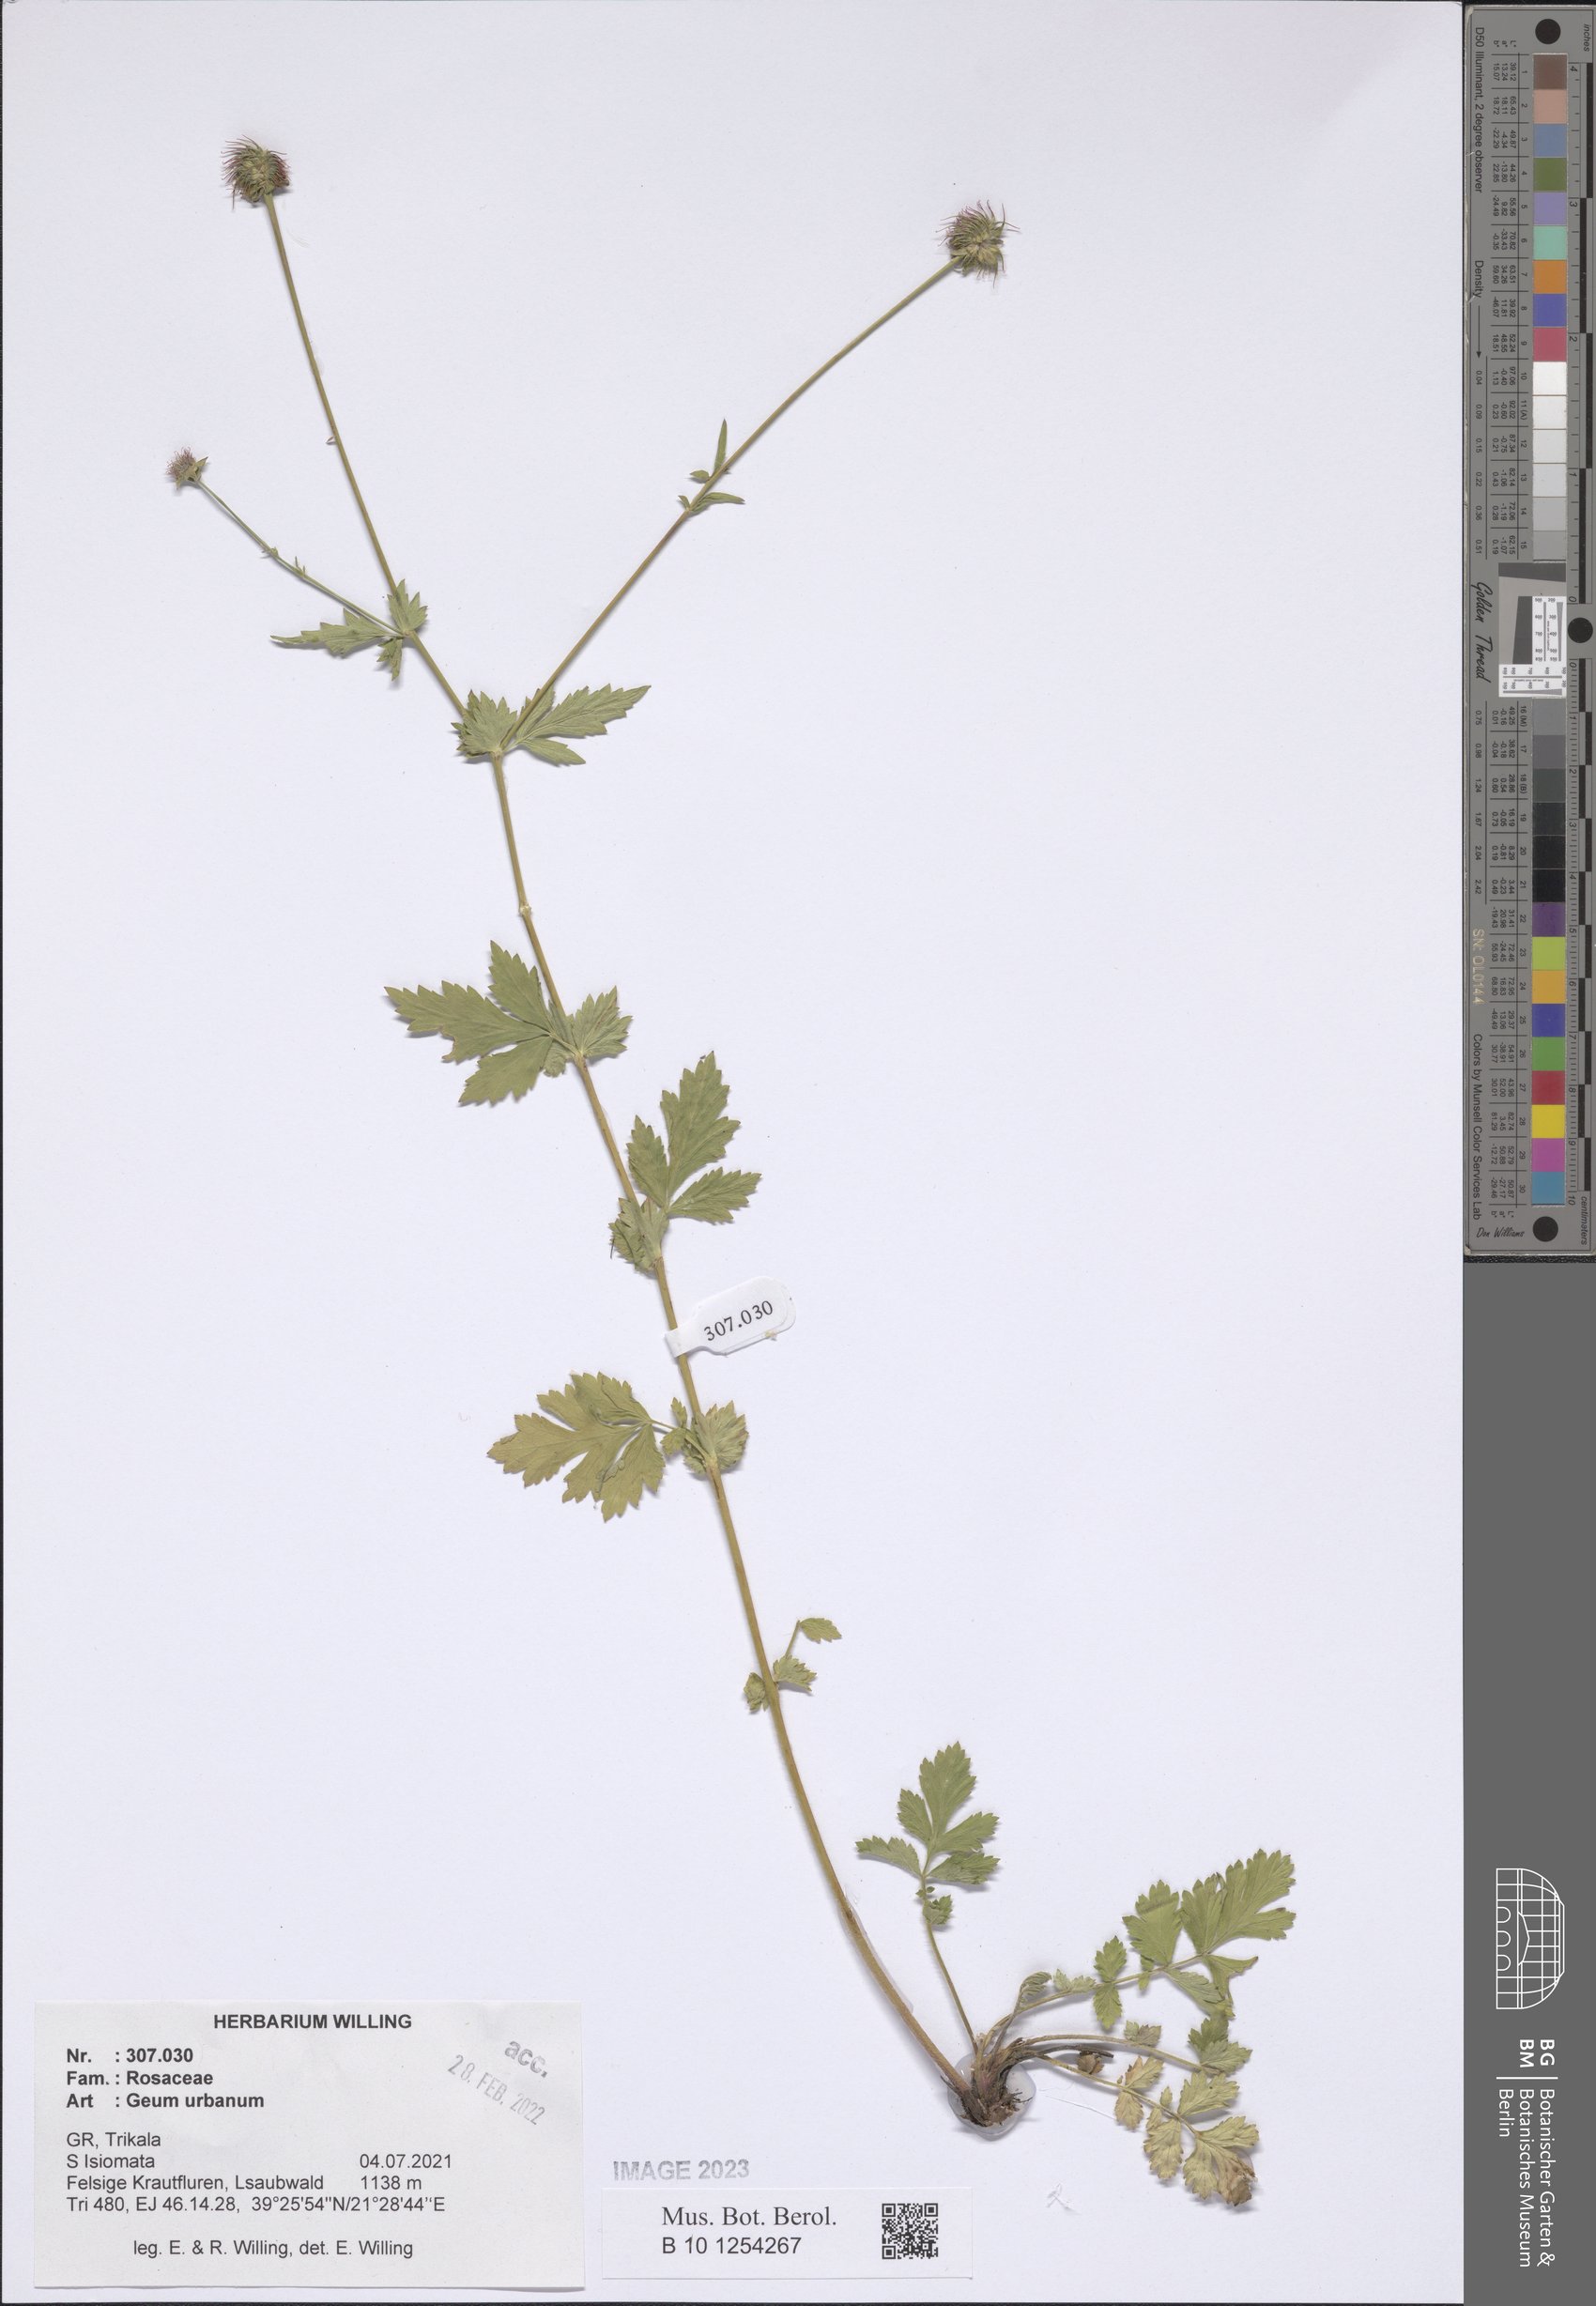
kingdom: Plantae
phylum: Tracheophyta
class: Magnoliopsida
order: Rosales
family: Rosaceae
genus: Geum
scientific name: Geum urbanum
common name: Wood avens
